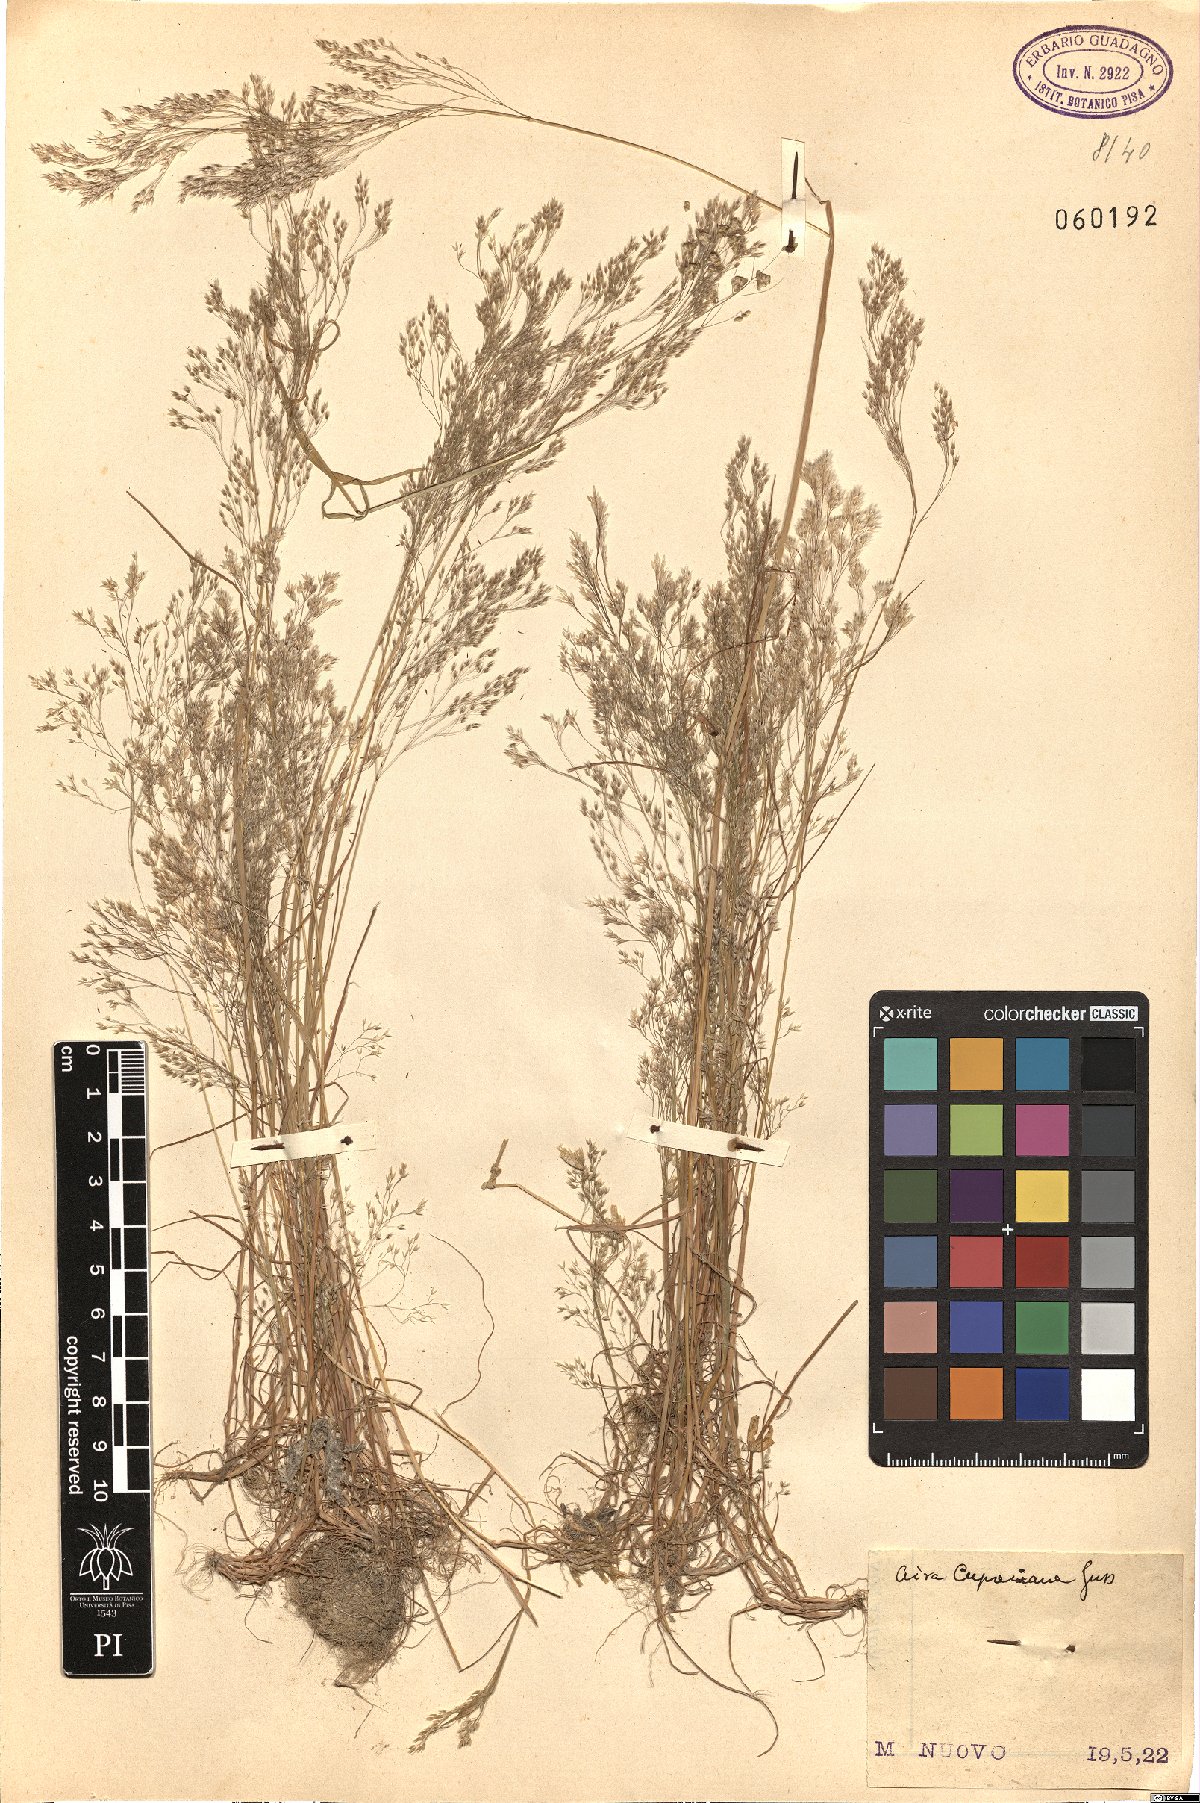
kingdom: Plantae
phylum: Tracheophyta
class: Liliopsida
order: Poales
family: Poaceae
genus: Aira
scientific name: Aira cupaniana
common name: Silver hairgrass
